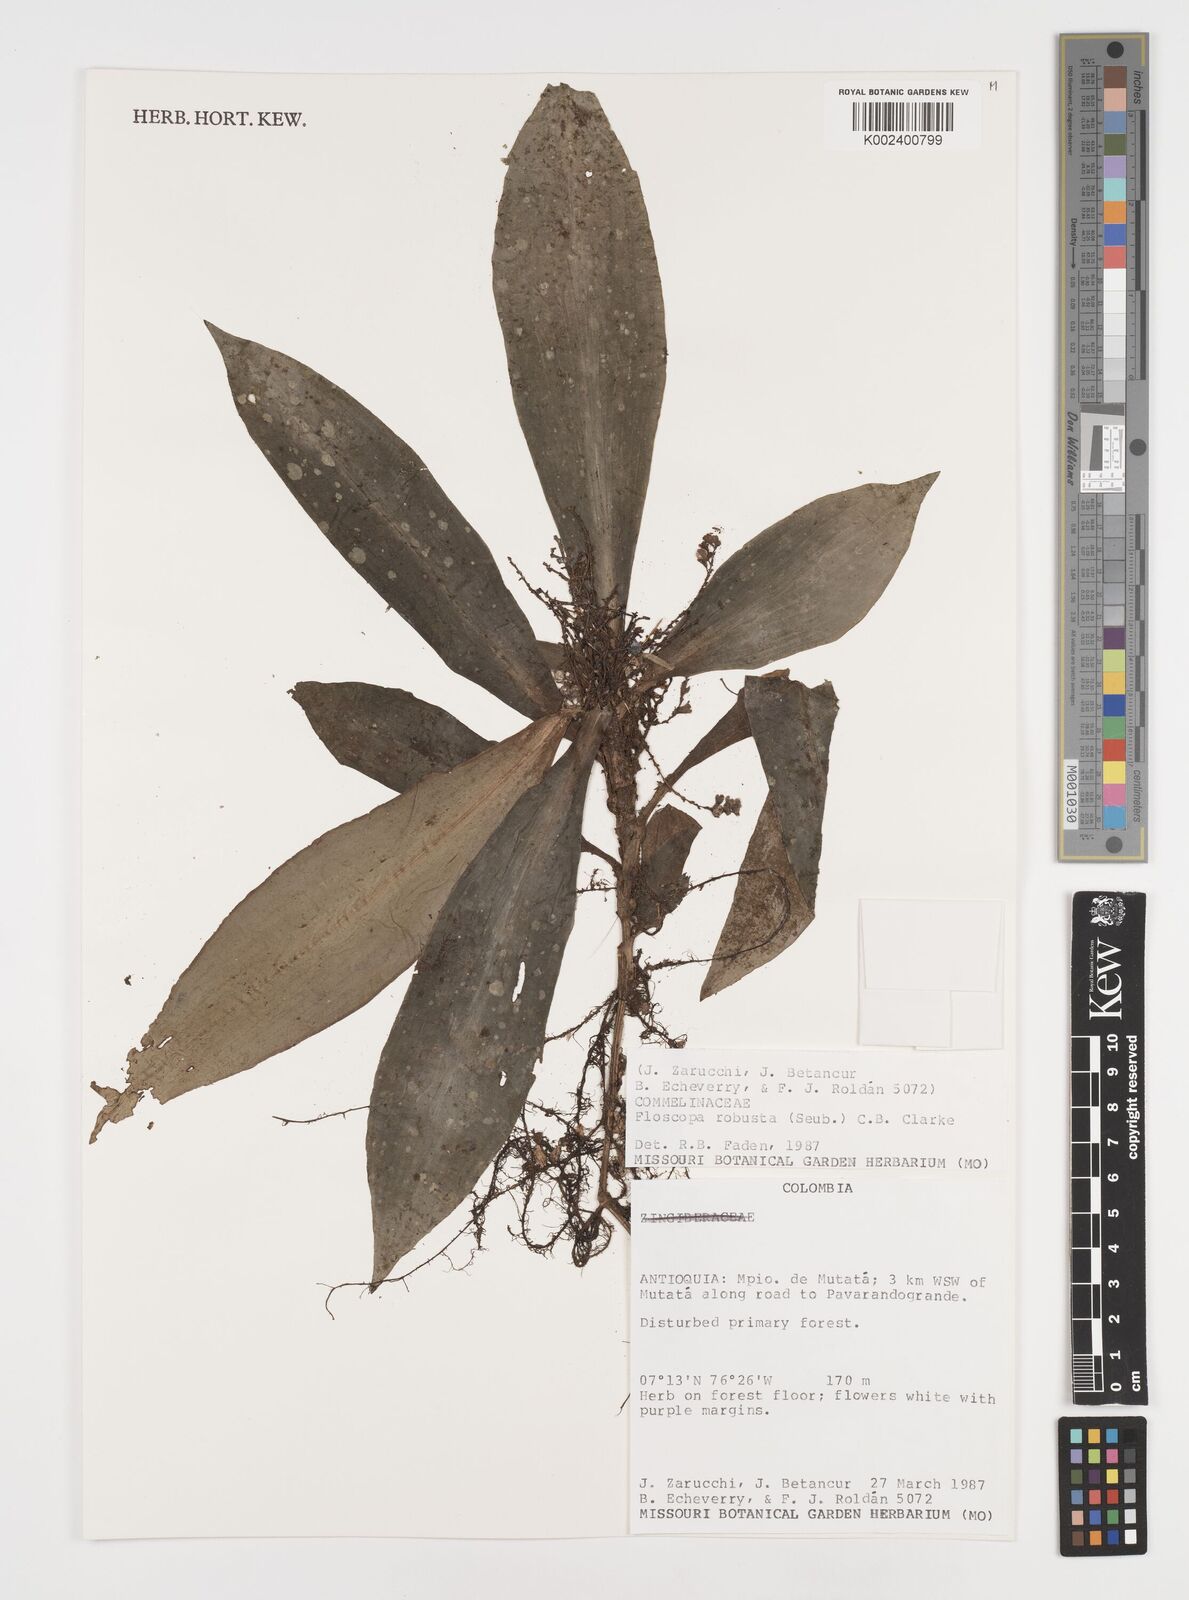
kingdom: Plantae
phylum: Tracheophyta
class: Liliopsida
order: Commelinales
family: Commelinaceae
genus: Floscopa
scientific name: Floscopa robusta
